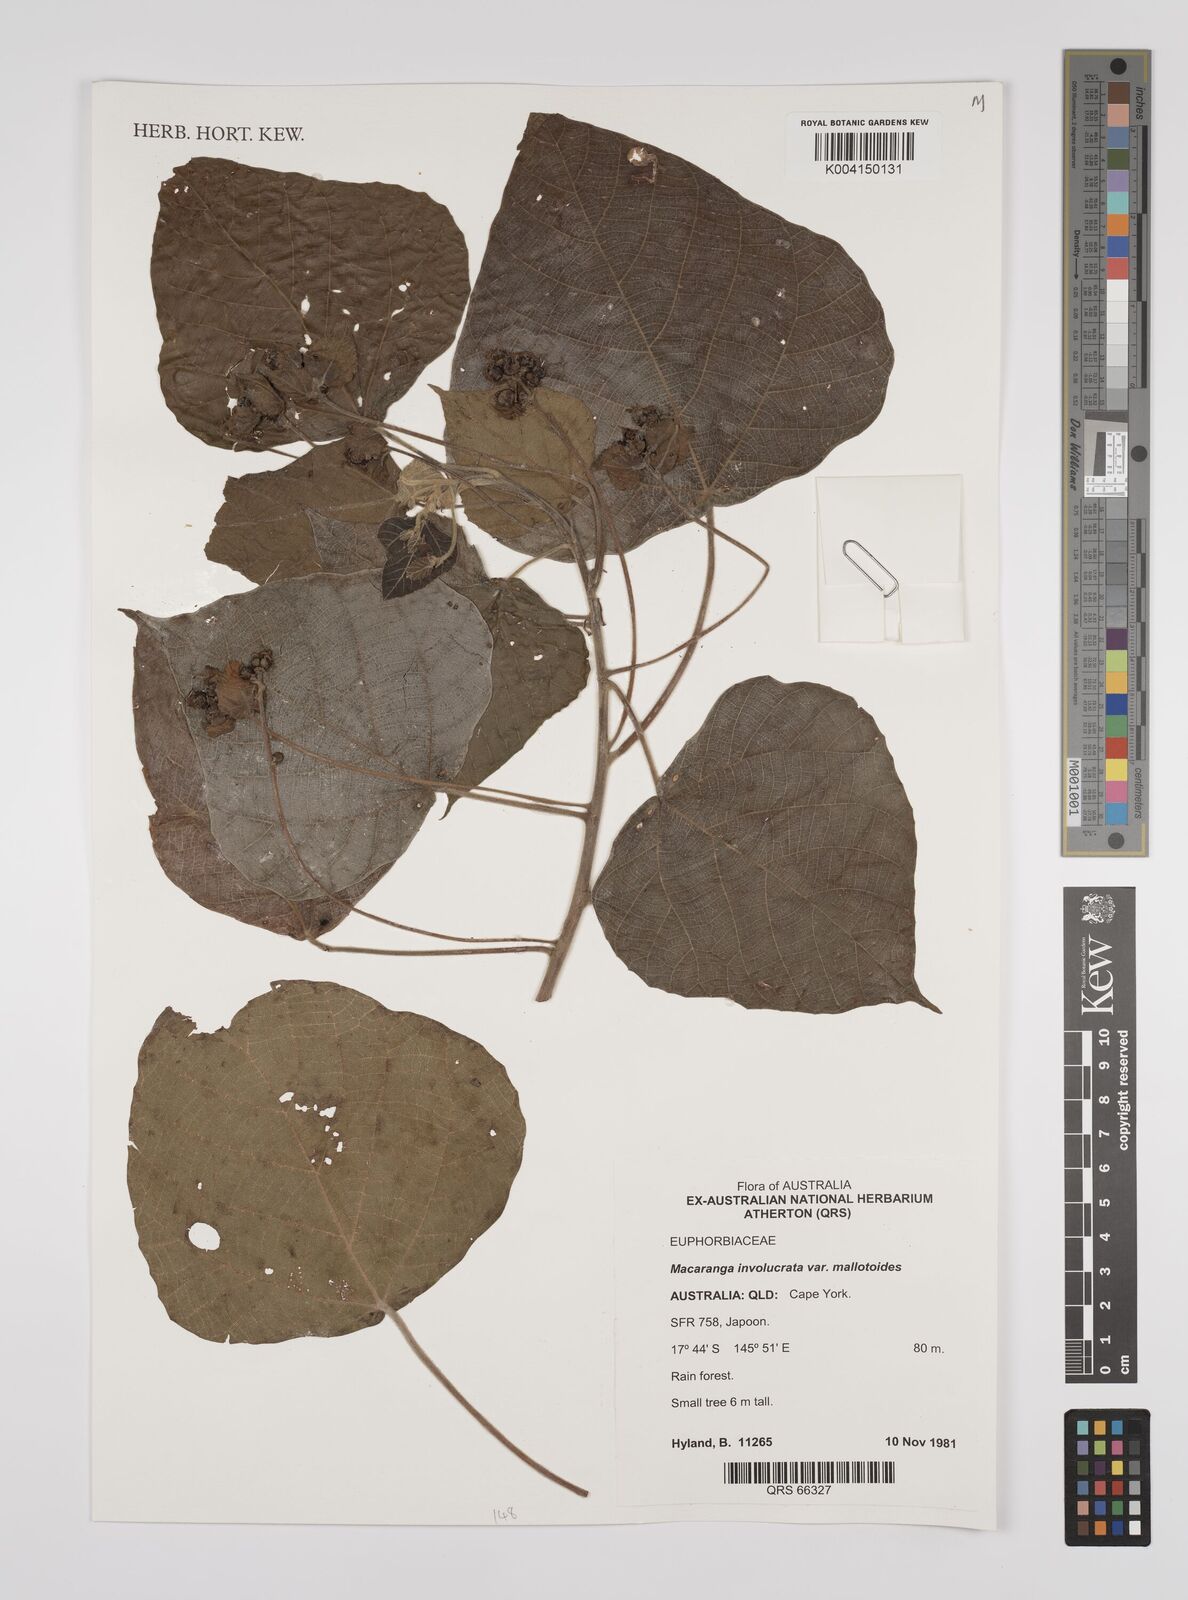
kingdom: Plantae
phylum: Tracheophyta
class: Magnoliopsida
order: Malpighiales
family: Euphorbiaceae
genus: Macaranga
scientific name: Macaranga involucrata
